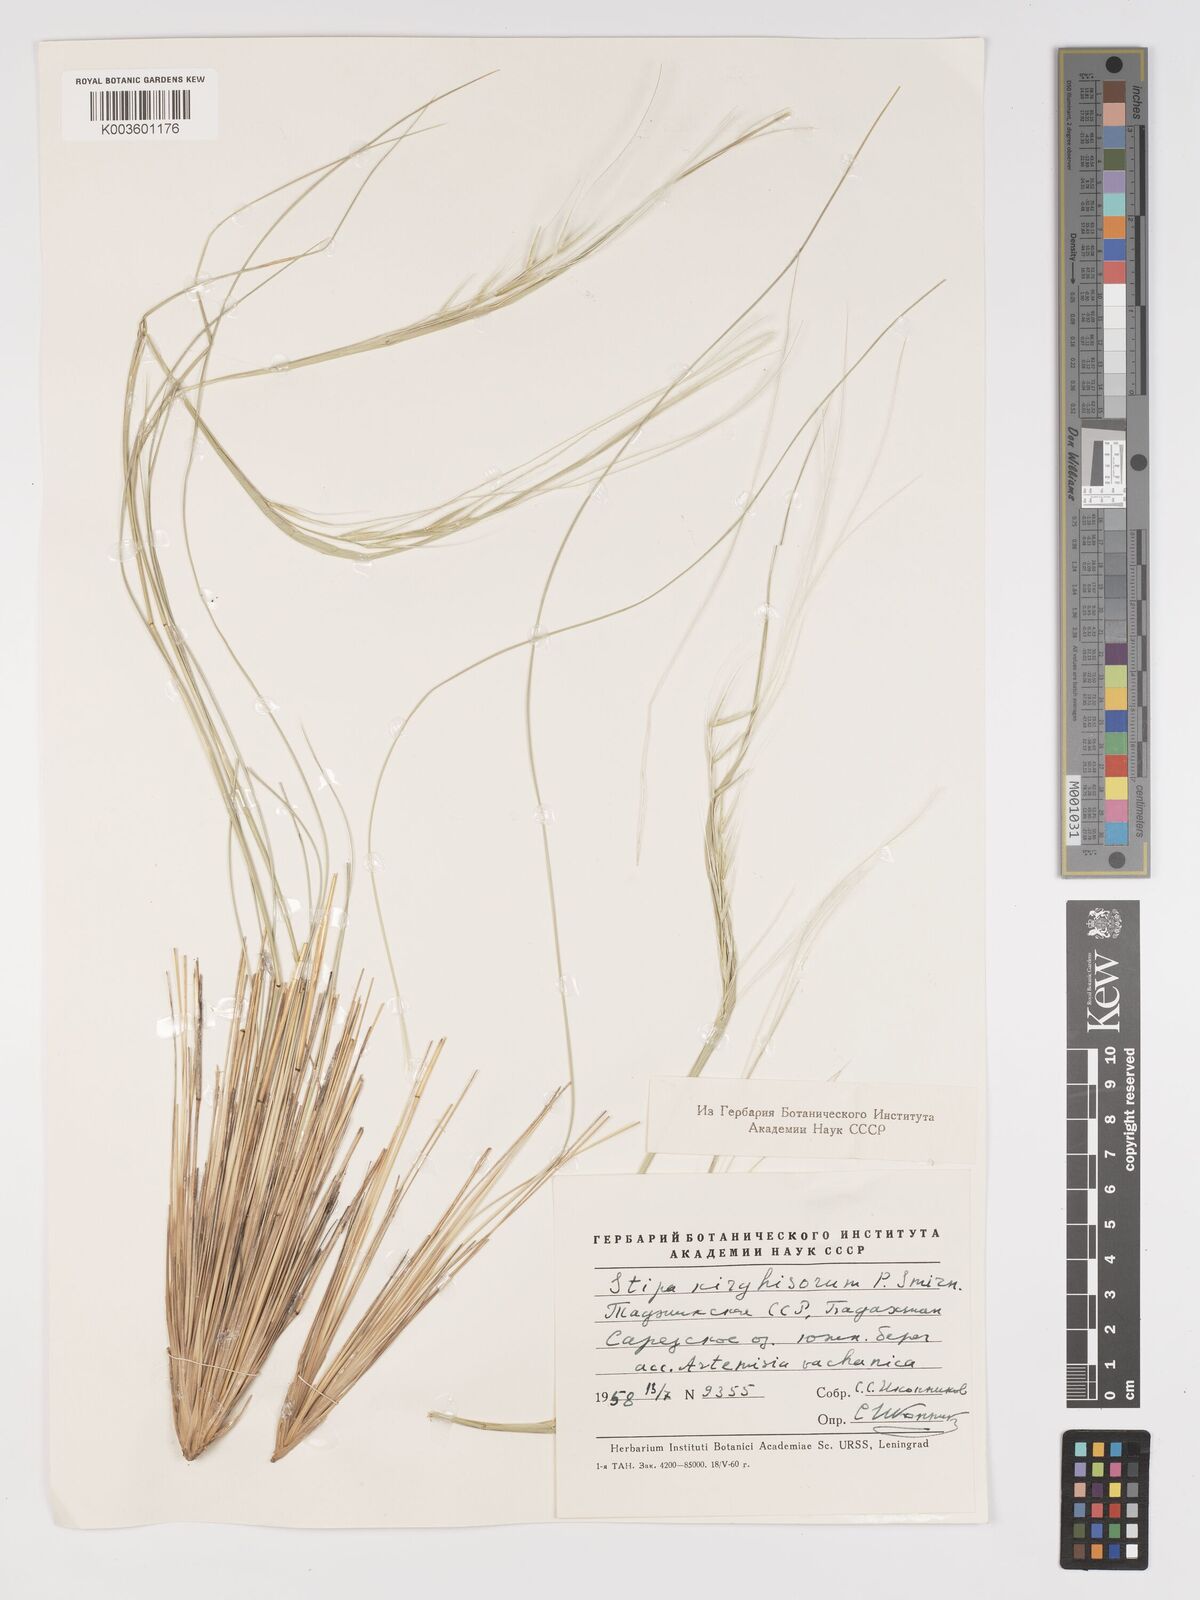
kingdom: Plantae
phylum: Tracheophyta
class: Liliopsida
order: Poales
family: Poaceae
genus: Stipa
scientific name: Stipa kirghisorum
